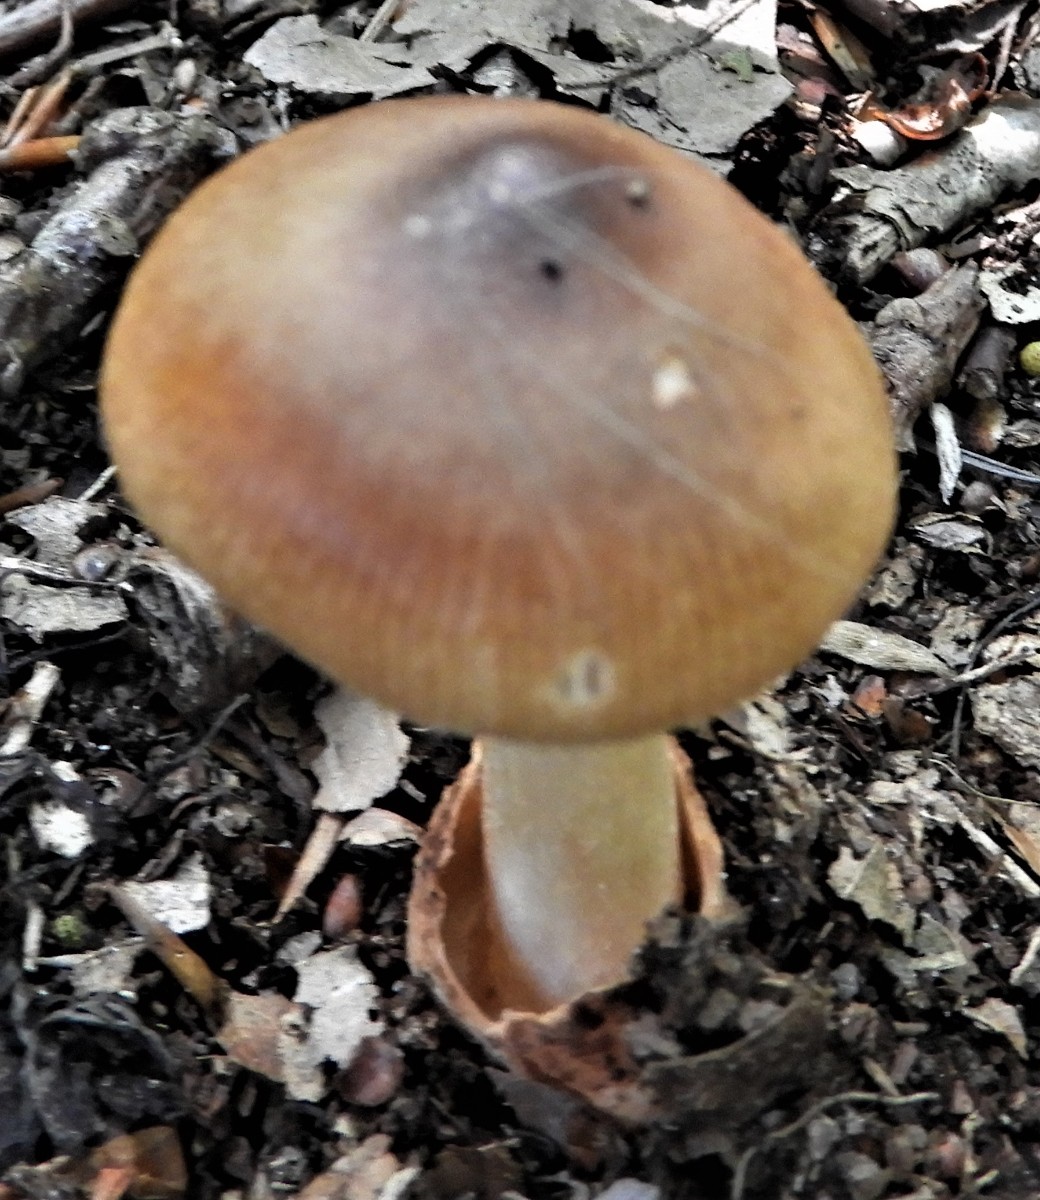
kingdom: Fungi
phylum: Basidiomycota
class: Agaricomycetes
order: Agaricales
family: Amanitaceae
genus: Amanita
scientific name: Amanita fulva
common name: brun kam-fluesvamp
